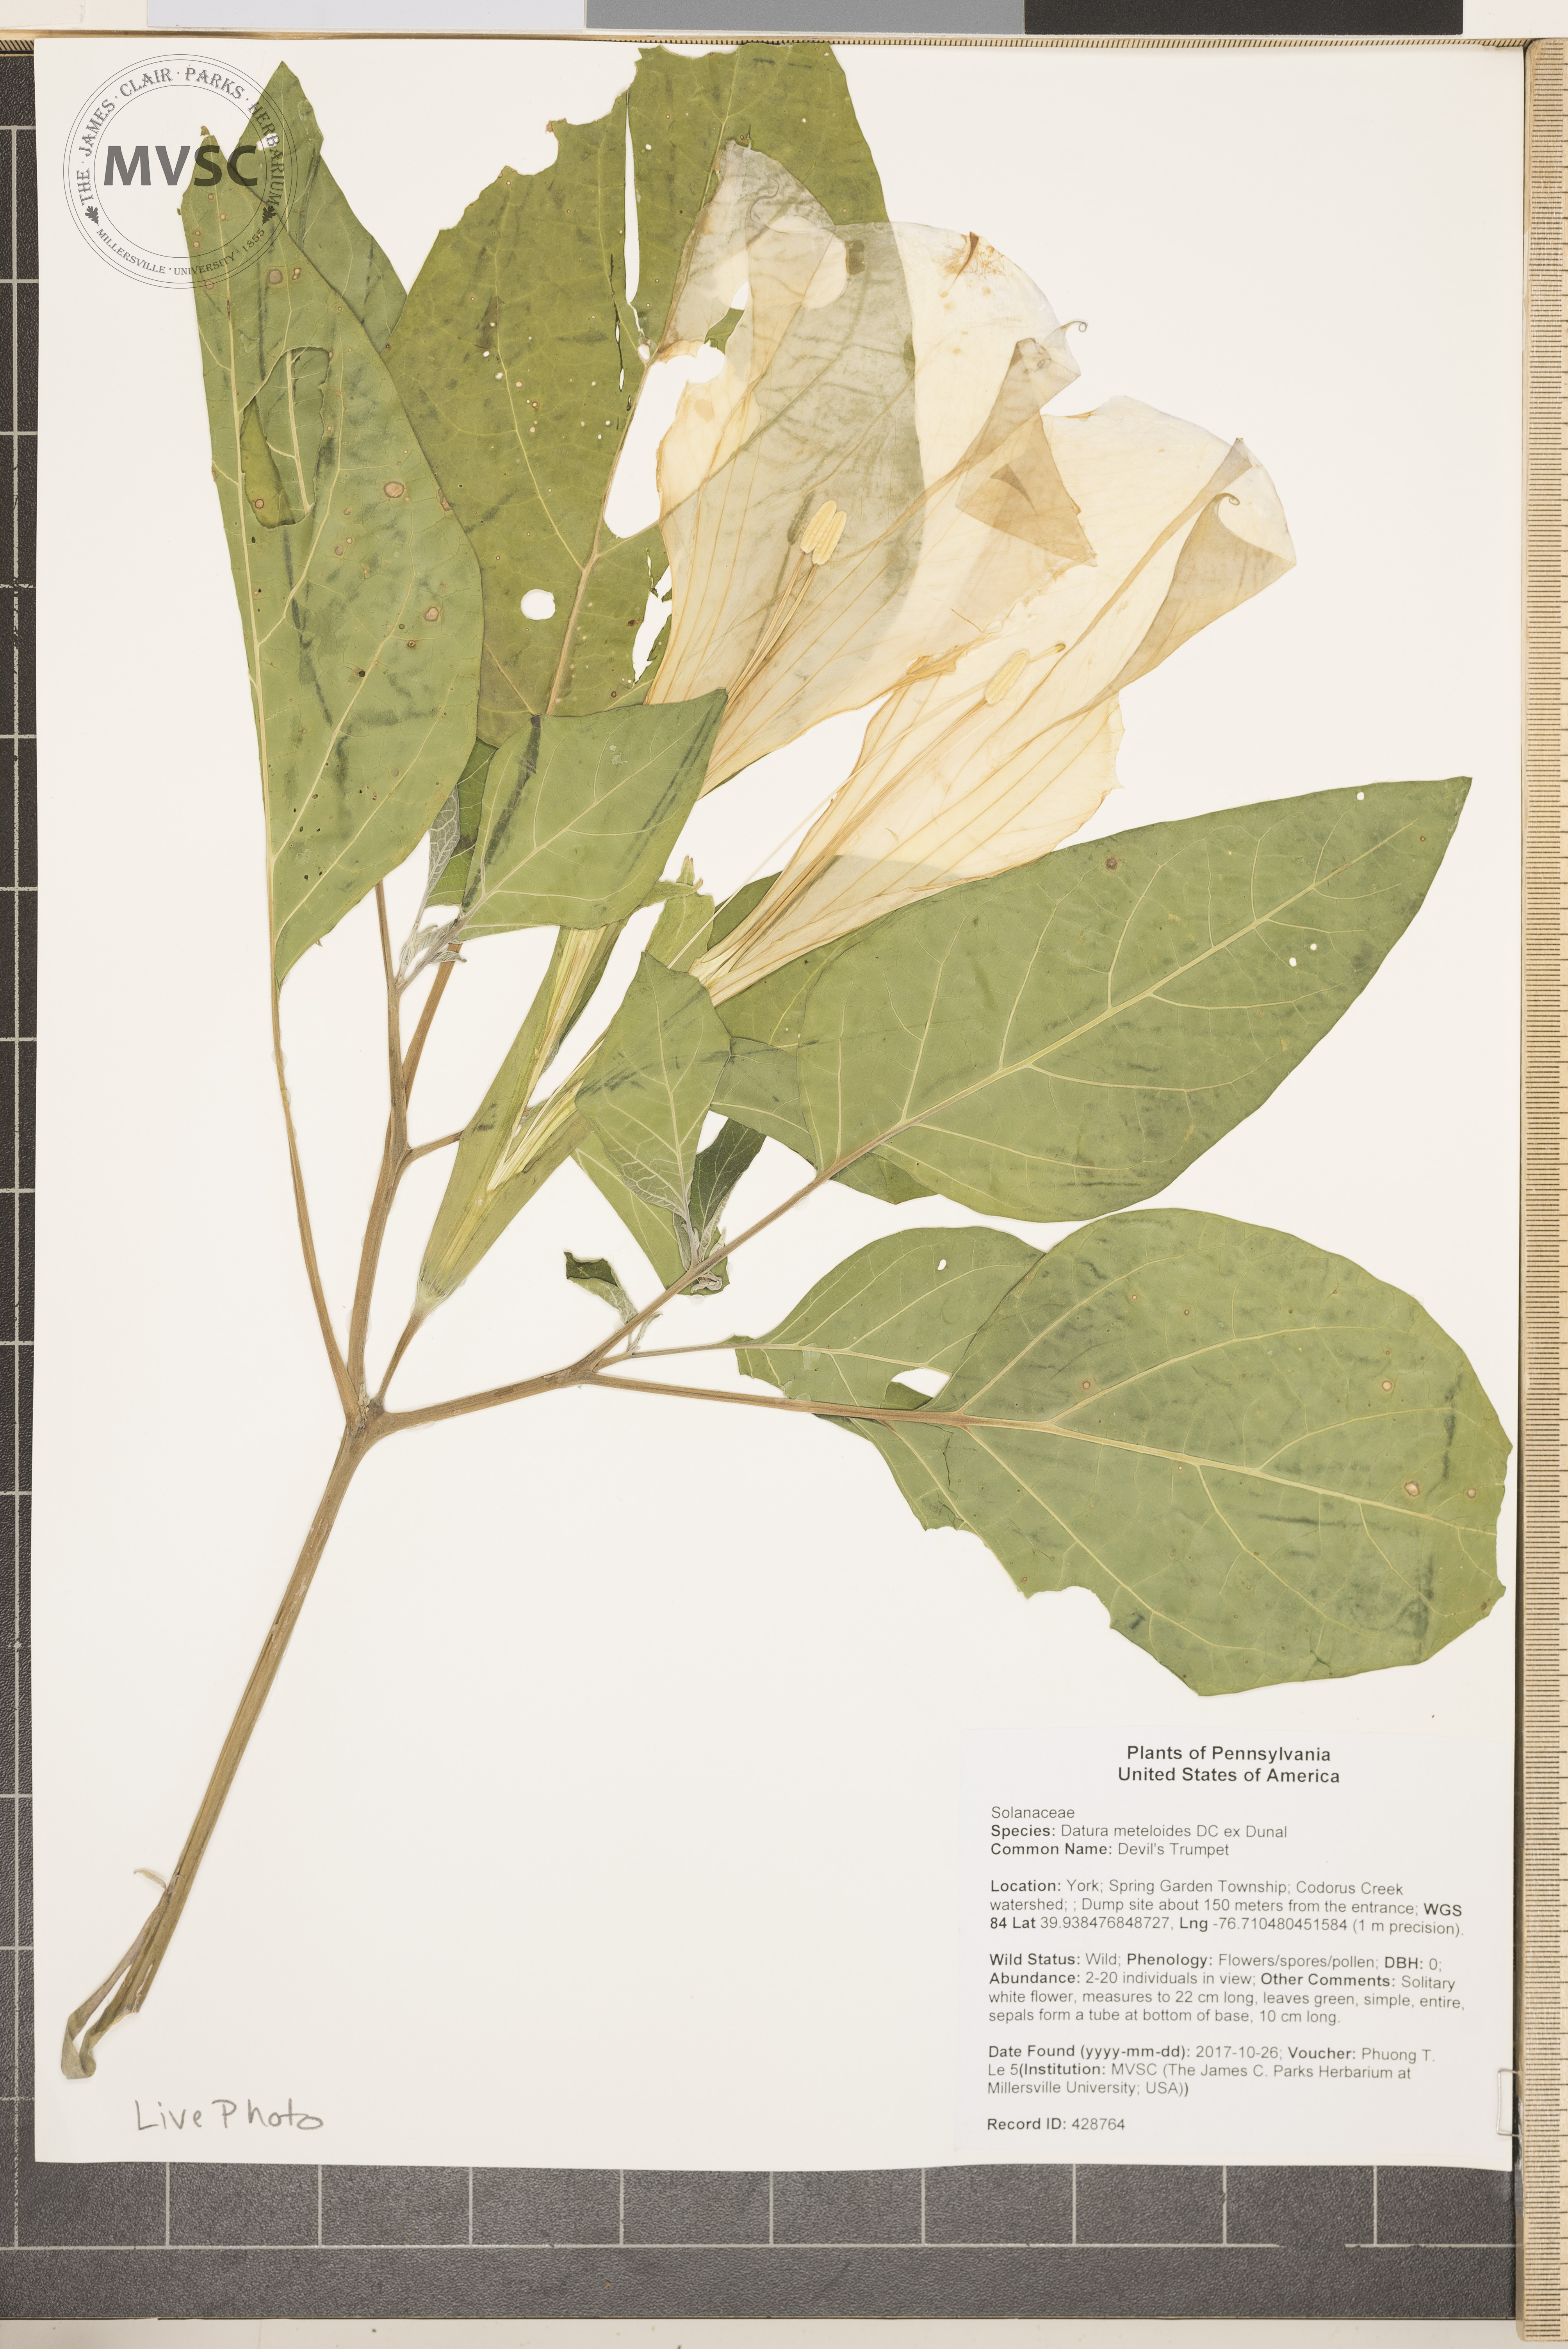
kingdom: Plantae
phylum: Tracheophyta
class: Magnoliopsida
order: Solanales
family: Solanaceae
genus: Datura
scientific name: Datura innoxia
